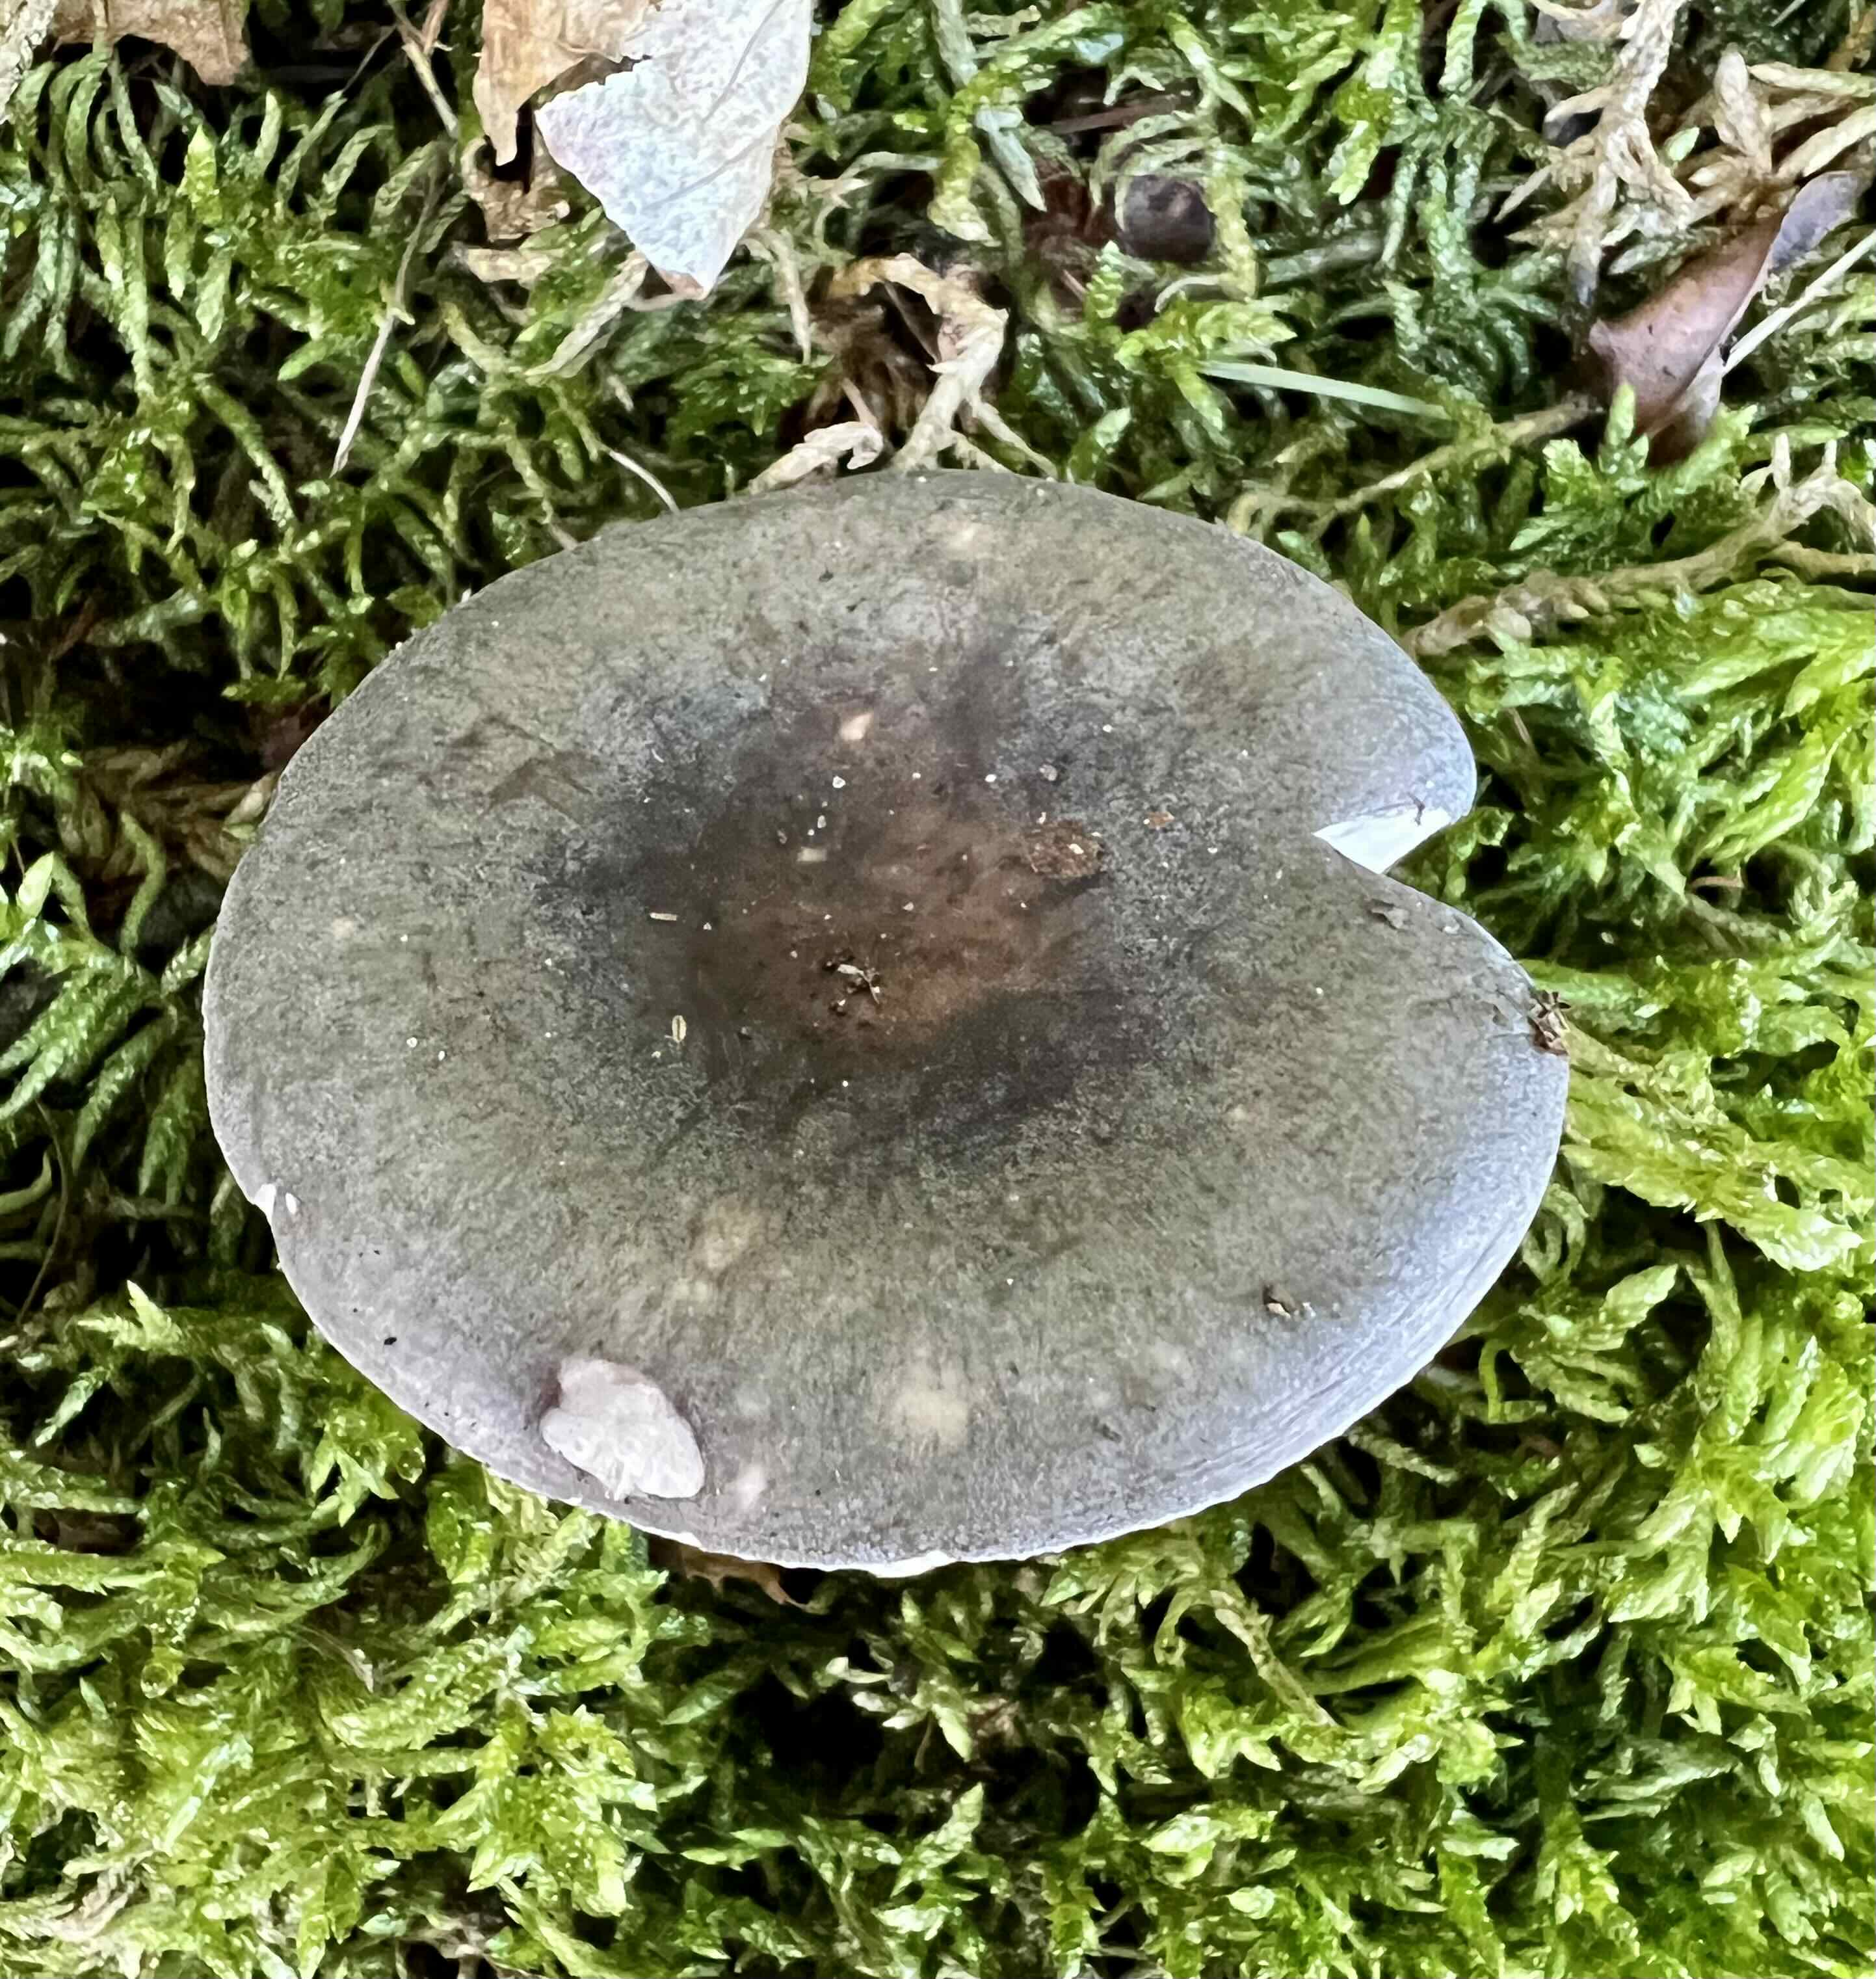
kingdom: Fungi
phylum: Basidiomycota
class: Agaricomycetes
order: Russulales
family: Russulaceae
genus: Russula
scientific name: Russula
